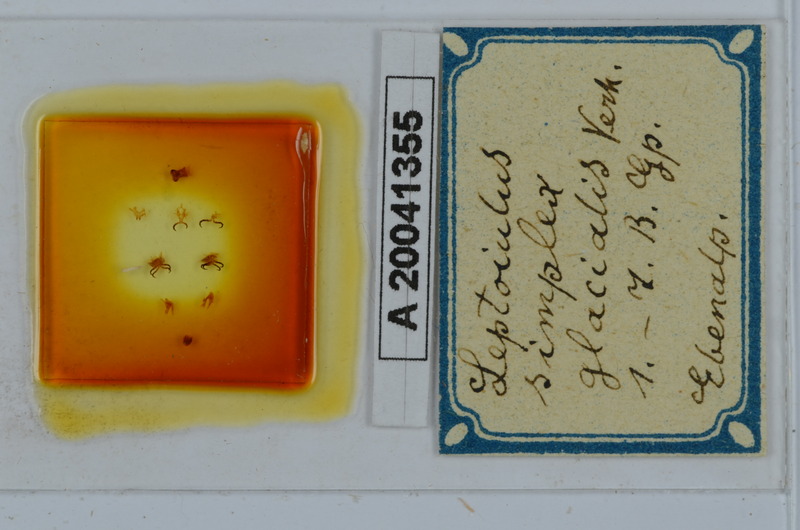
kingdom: Animalia
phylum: Arthropoda
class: Diplopoda
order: Julida
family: Julidae
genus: Leptoiulus
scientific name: Leptoiulus simplex
